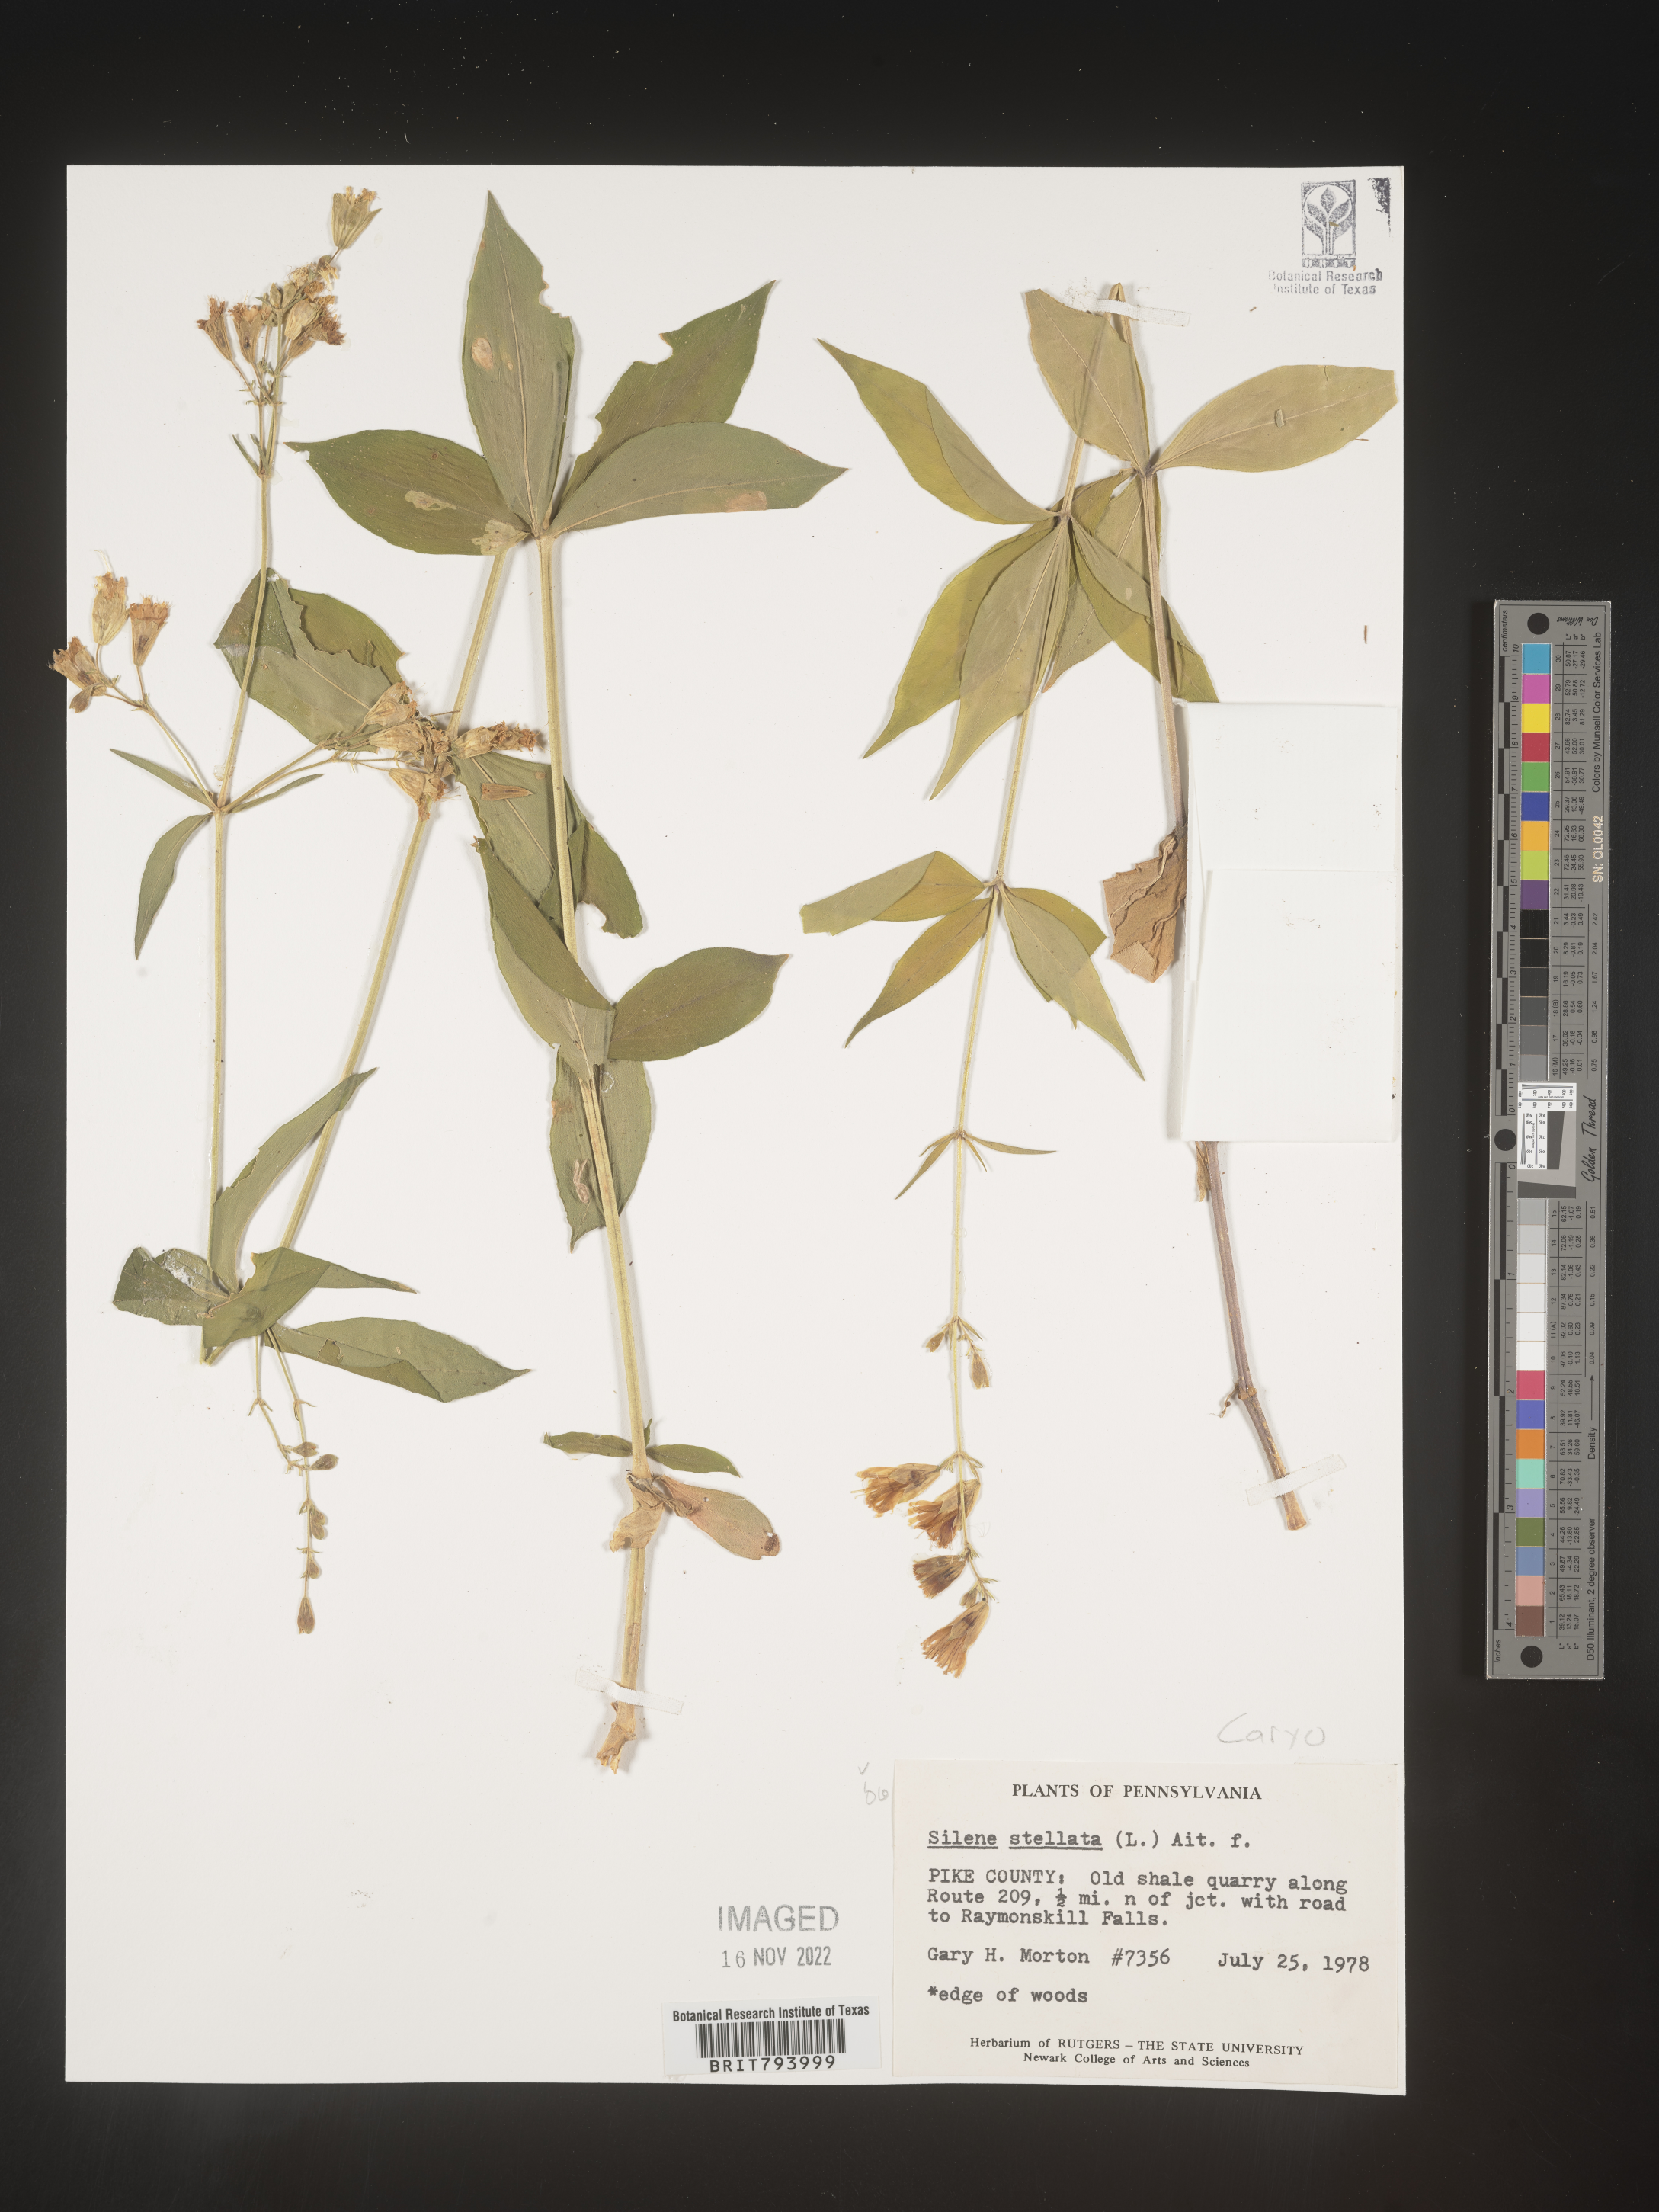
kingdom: Plantae
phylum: Tracheophyta
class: Magnoliopsida
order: Caryophyllales
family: Caryophyllaceae
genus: Silene
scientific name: Silene stellata
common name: Starry campion
